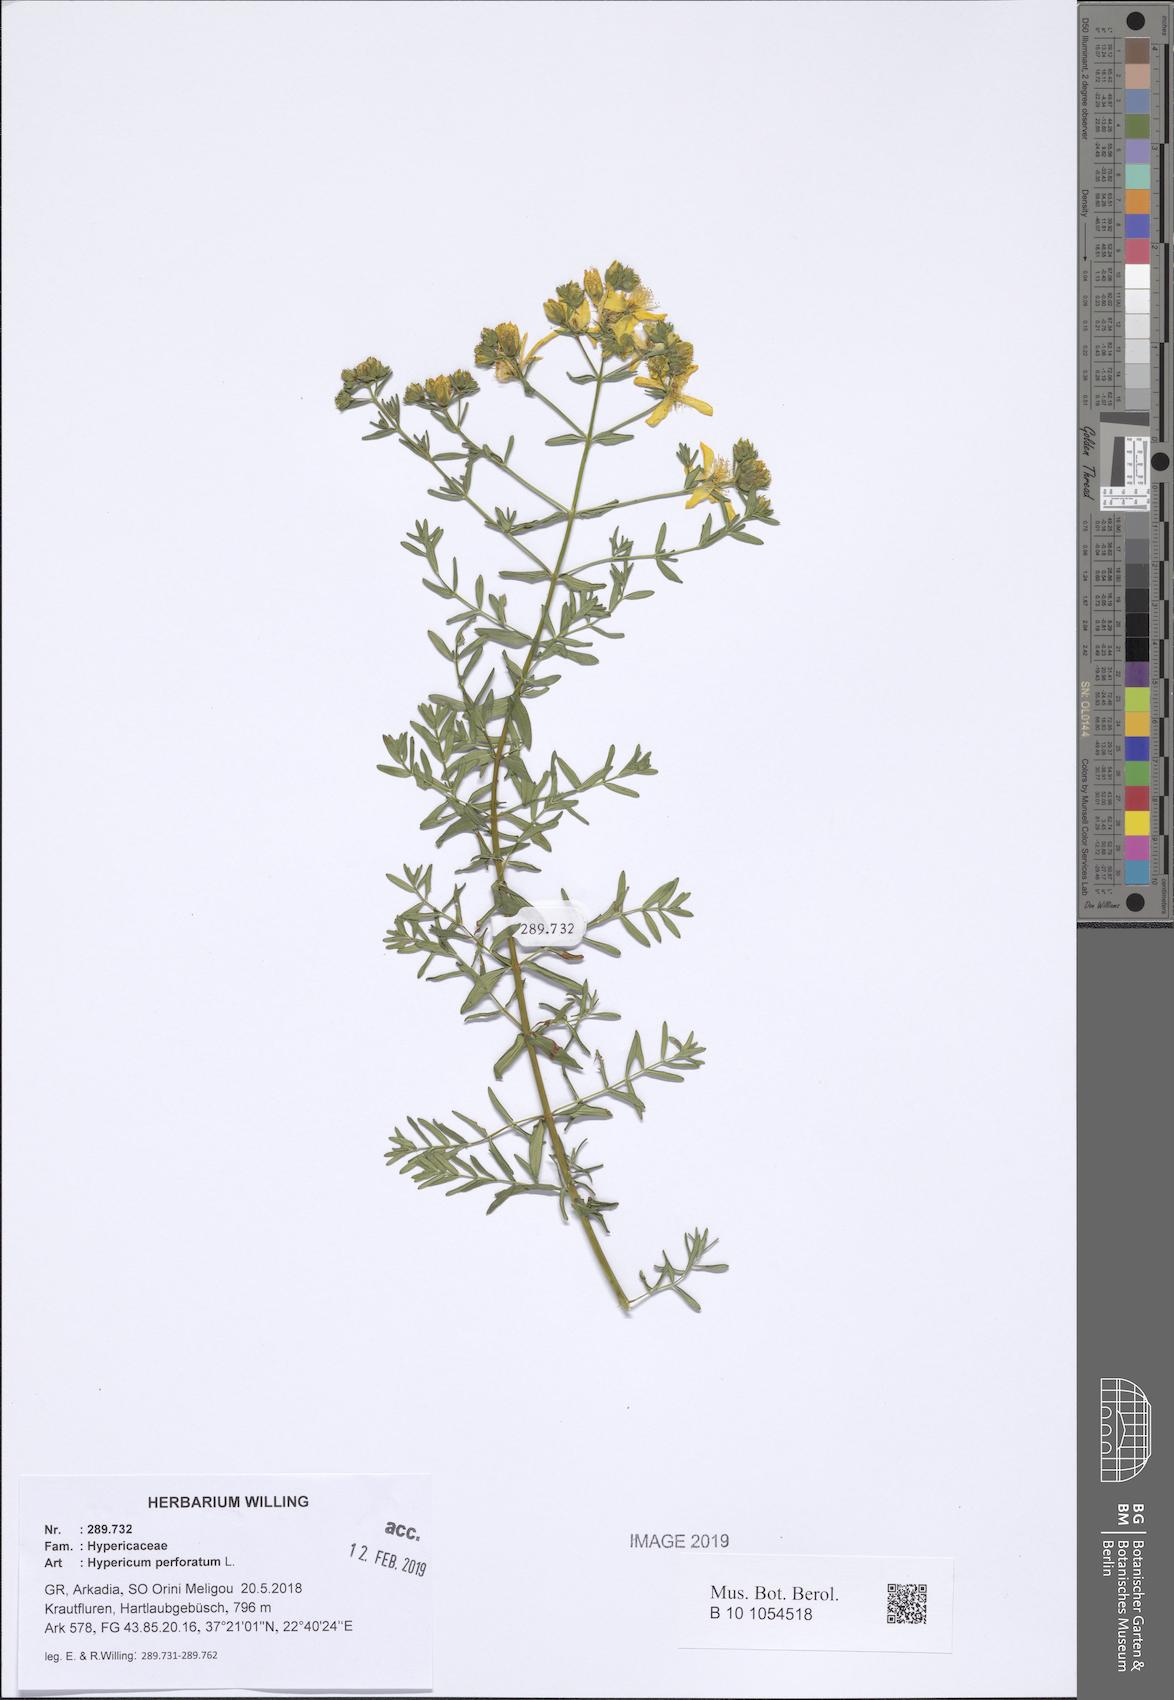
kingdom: Plantae
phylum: Tracheophyta
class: Magnoliopsida
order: Malpighiales
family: Hypericaceae
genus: Hypericum
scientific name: Hypericum perforatum
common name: Common st. johnswort
